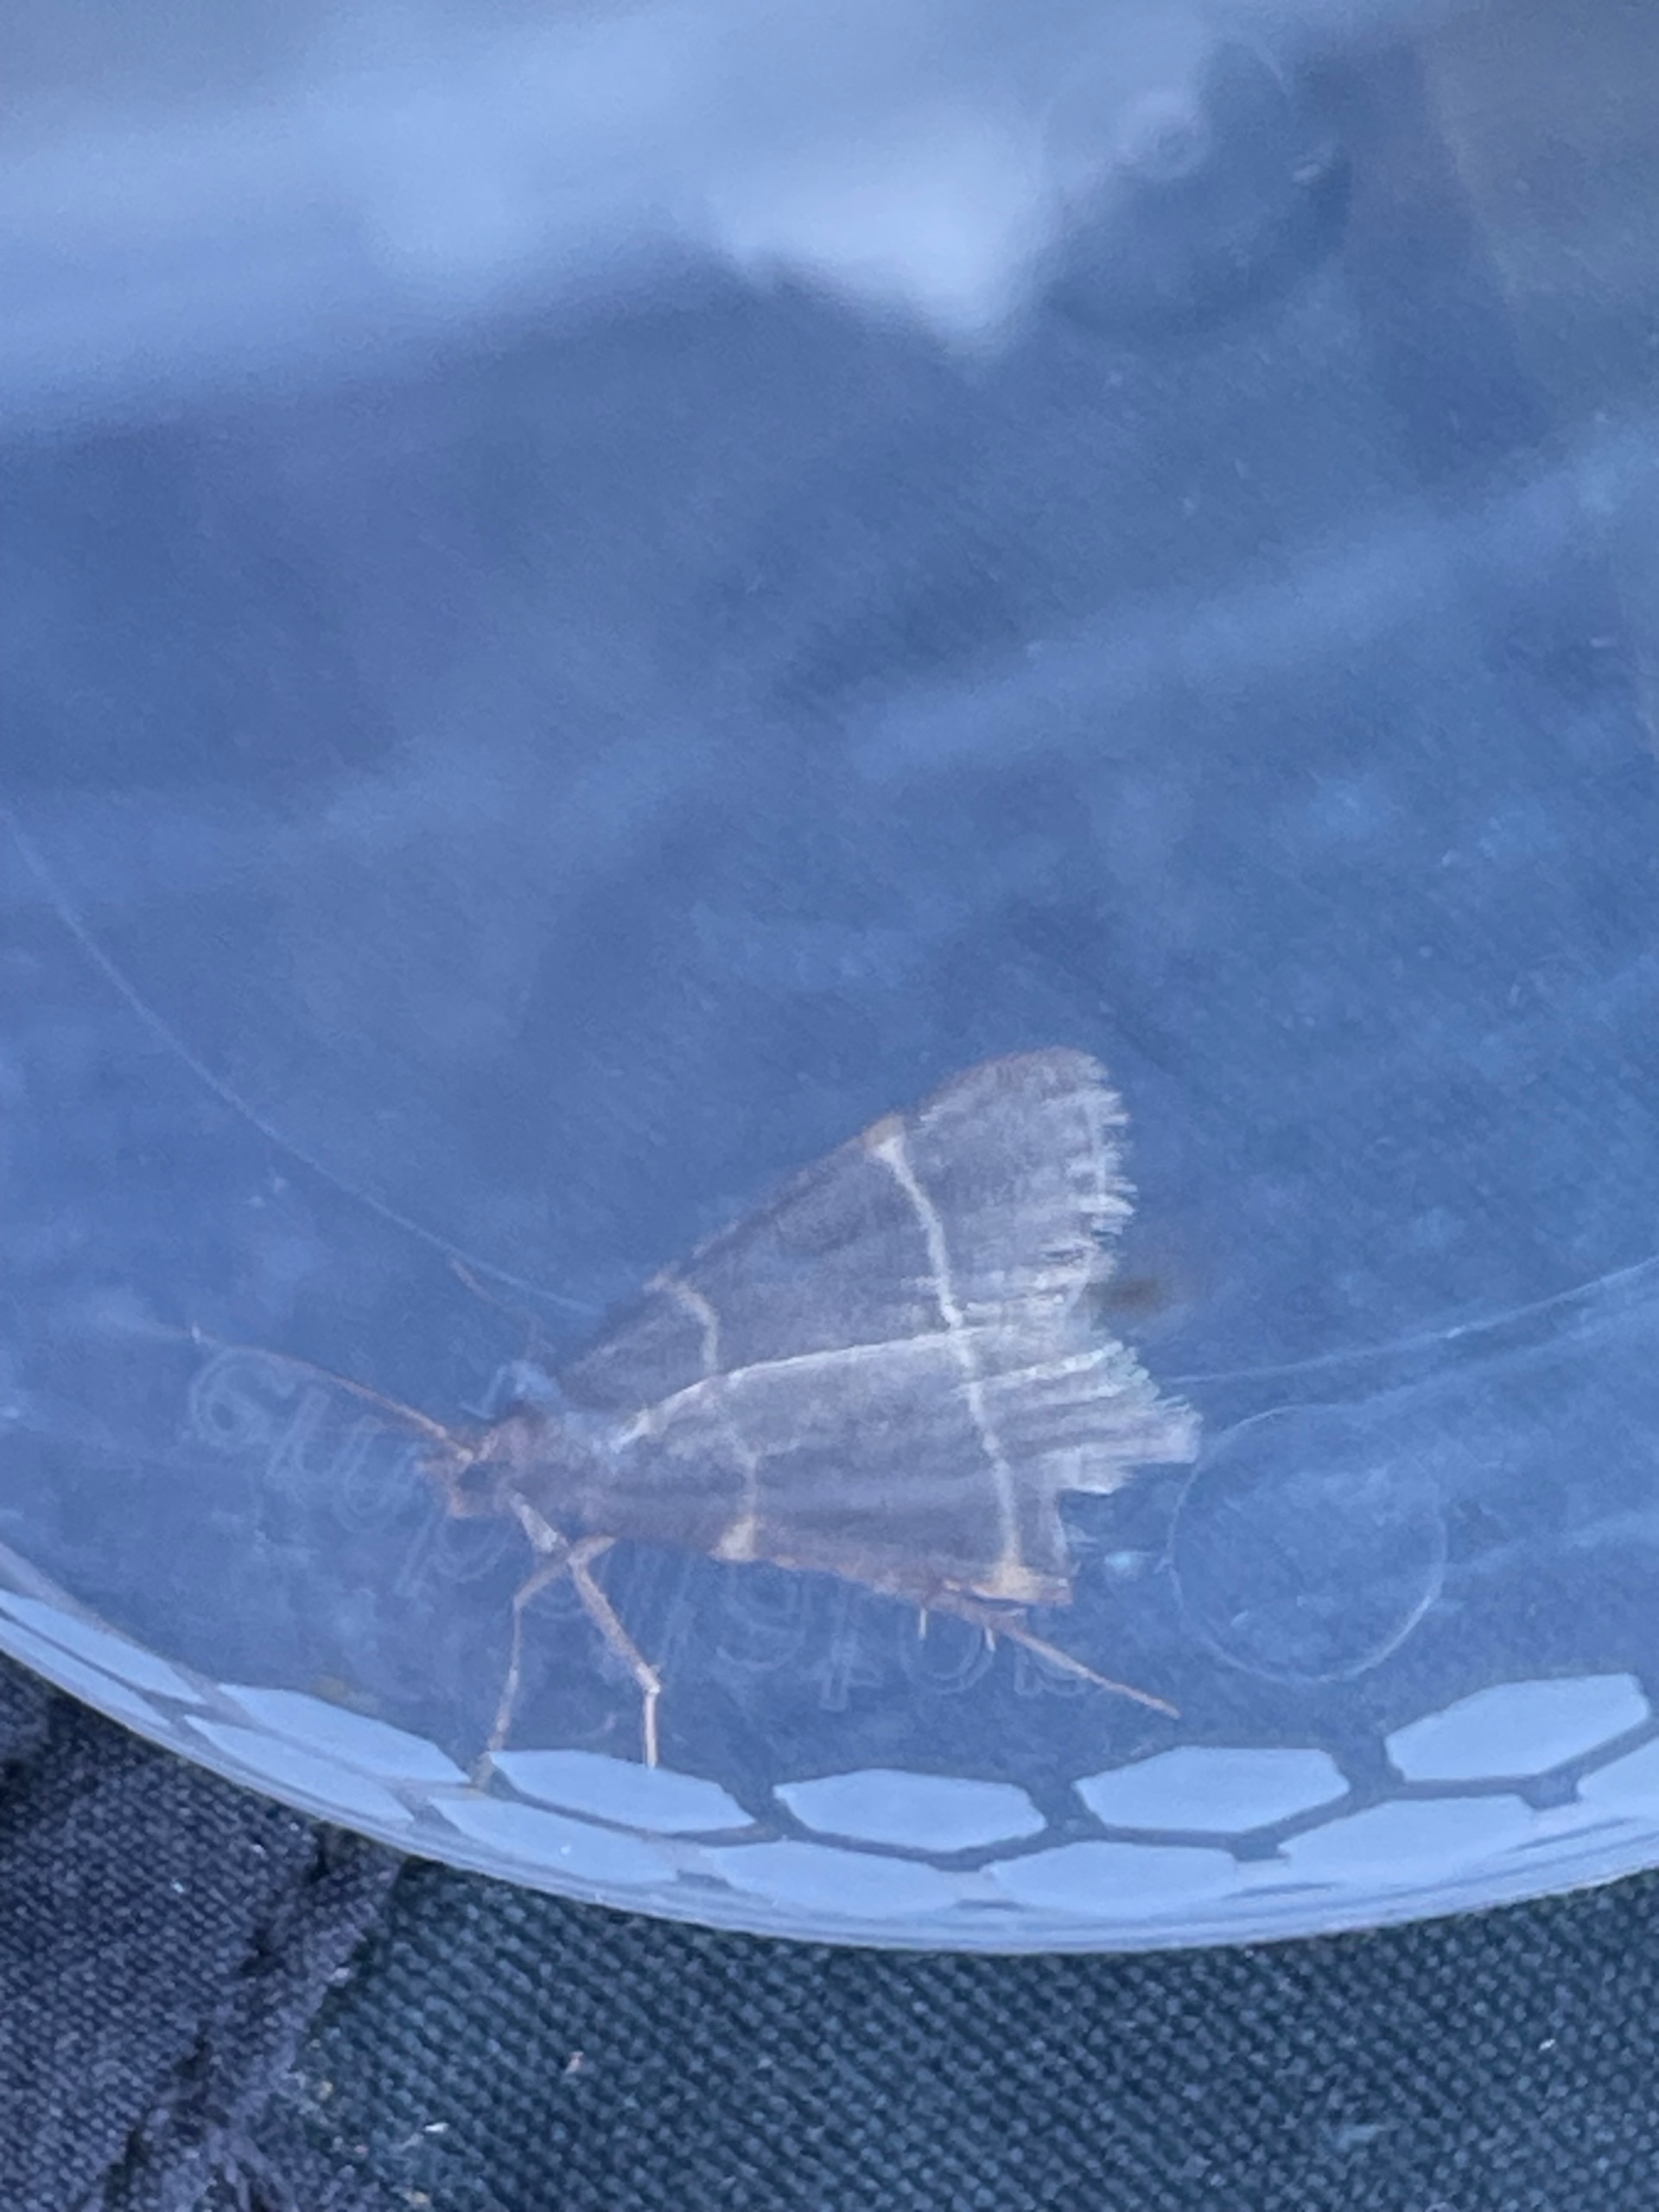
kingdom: Animalia
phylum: Arthropoda
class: Insecta
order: Lepidoptera
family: Pyralidae
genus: Hypsopygia
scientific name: Hypsopygia glaucinalis
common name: Blågråt herkuleshalvmøl
